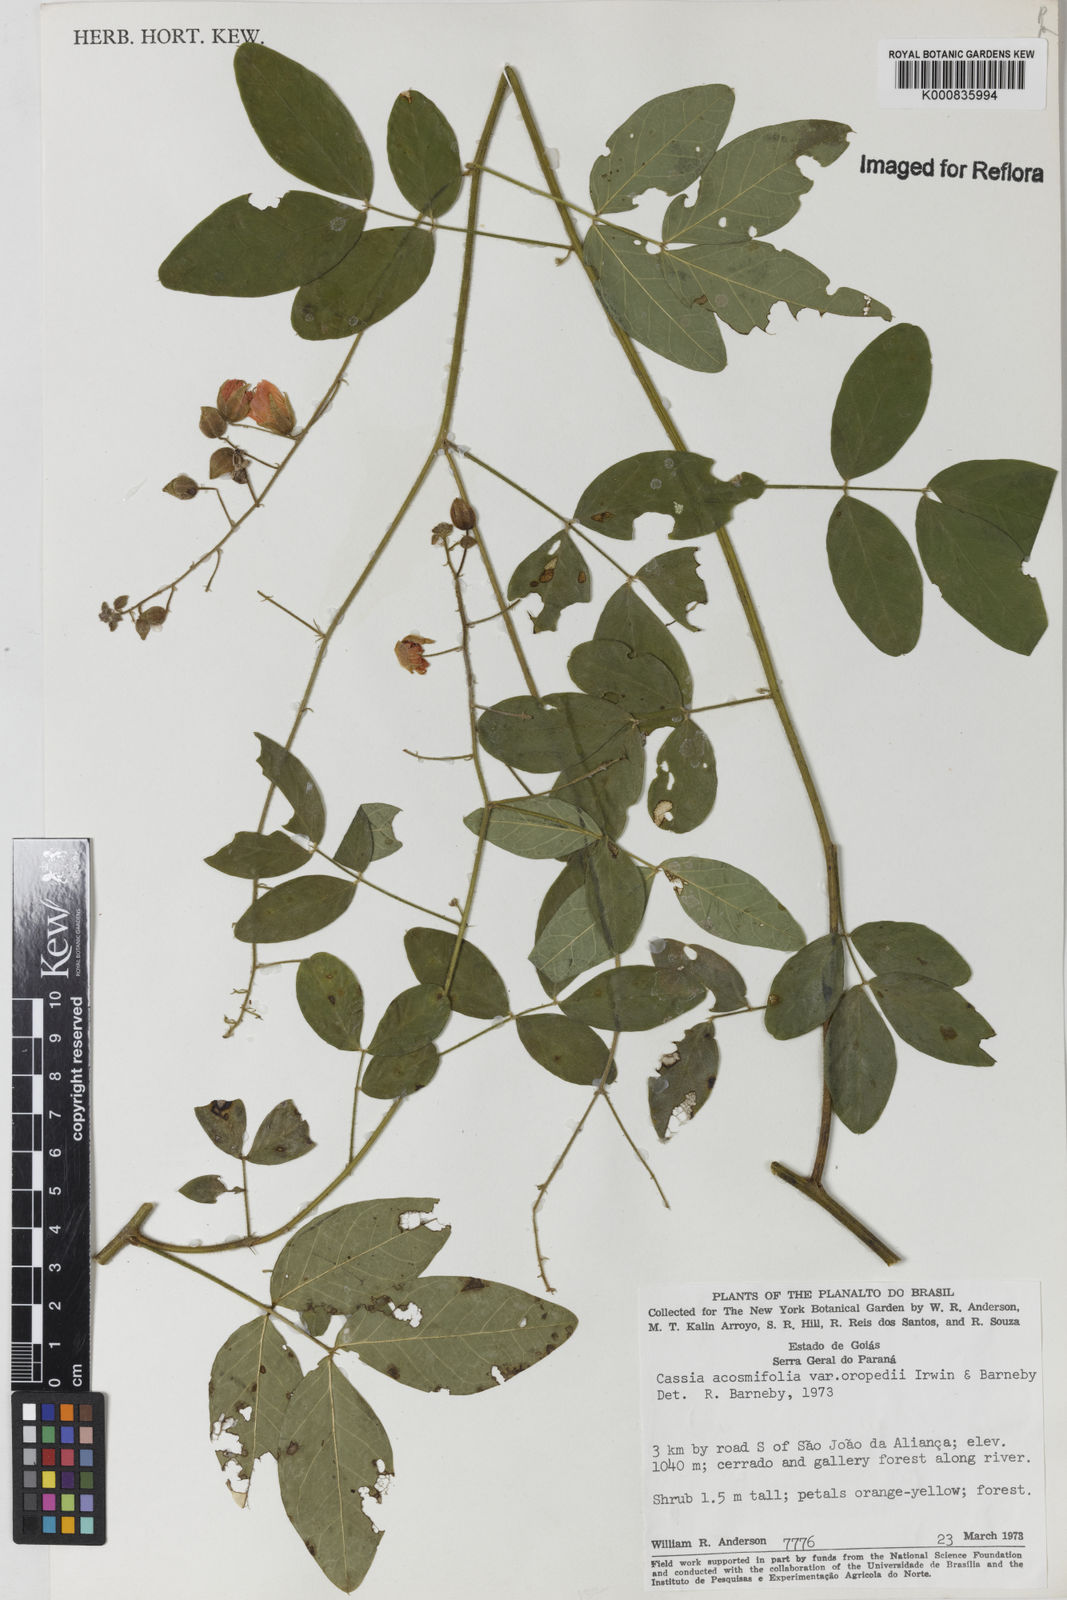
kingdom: Plantae
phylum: Tracheophyta
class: Magnoliopsida
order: Fabales
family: Fabaceae
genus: Chamaecrista
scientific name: Chamaecrista acosmifolia
